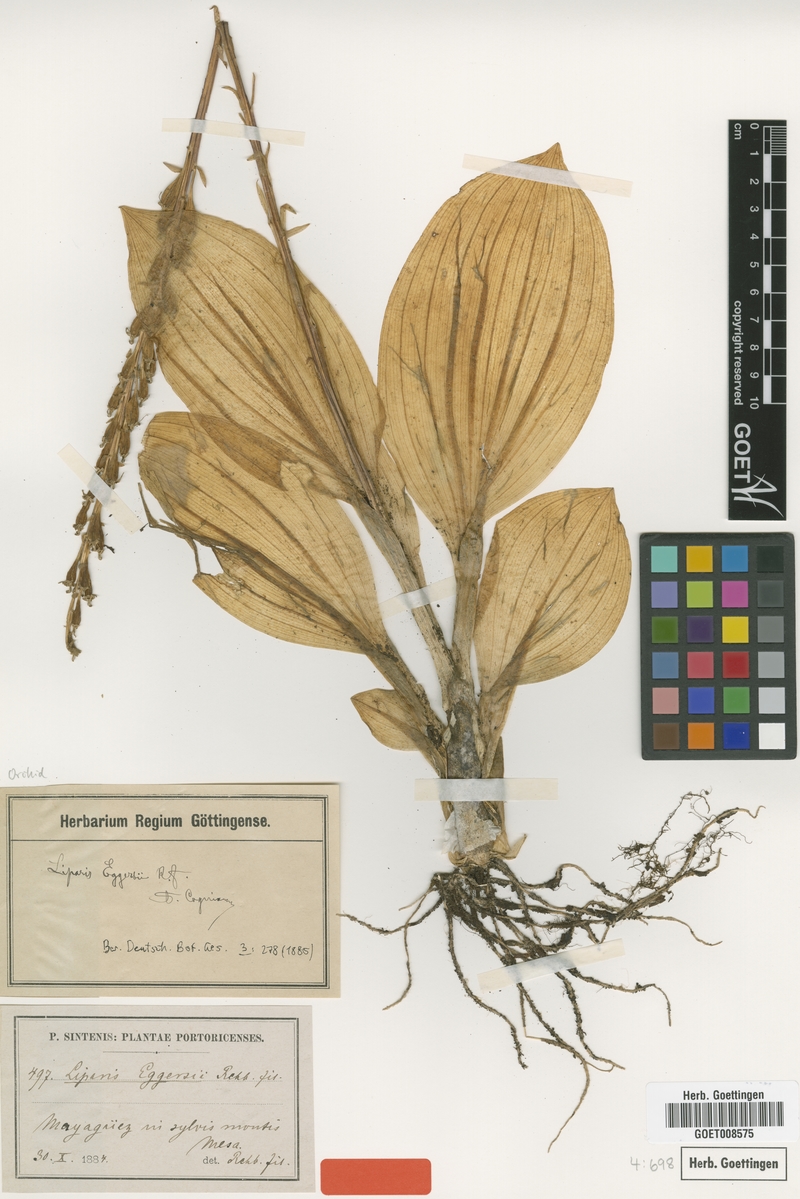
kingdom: Plantae
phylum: Tracheophyta
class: Liliopsida
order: Asparagales
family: Orchidaceae
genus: Liparis
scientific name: Liparis nervosa
